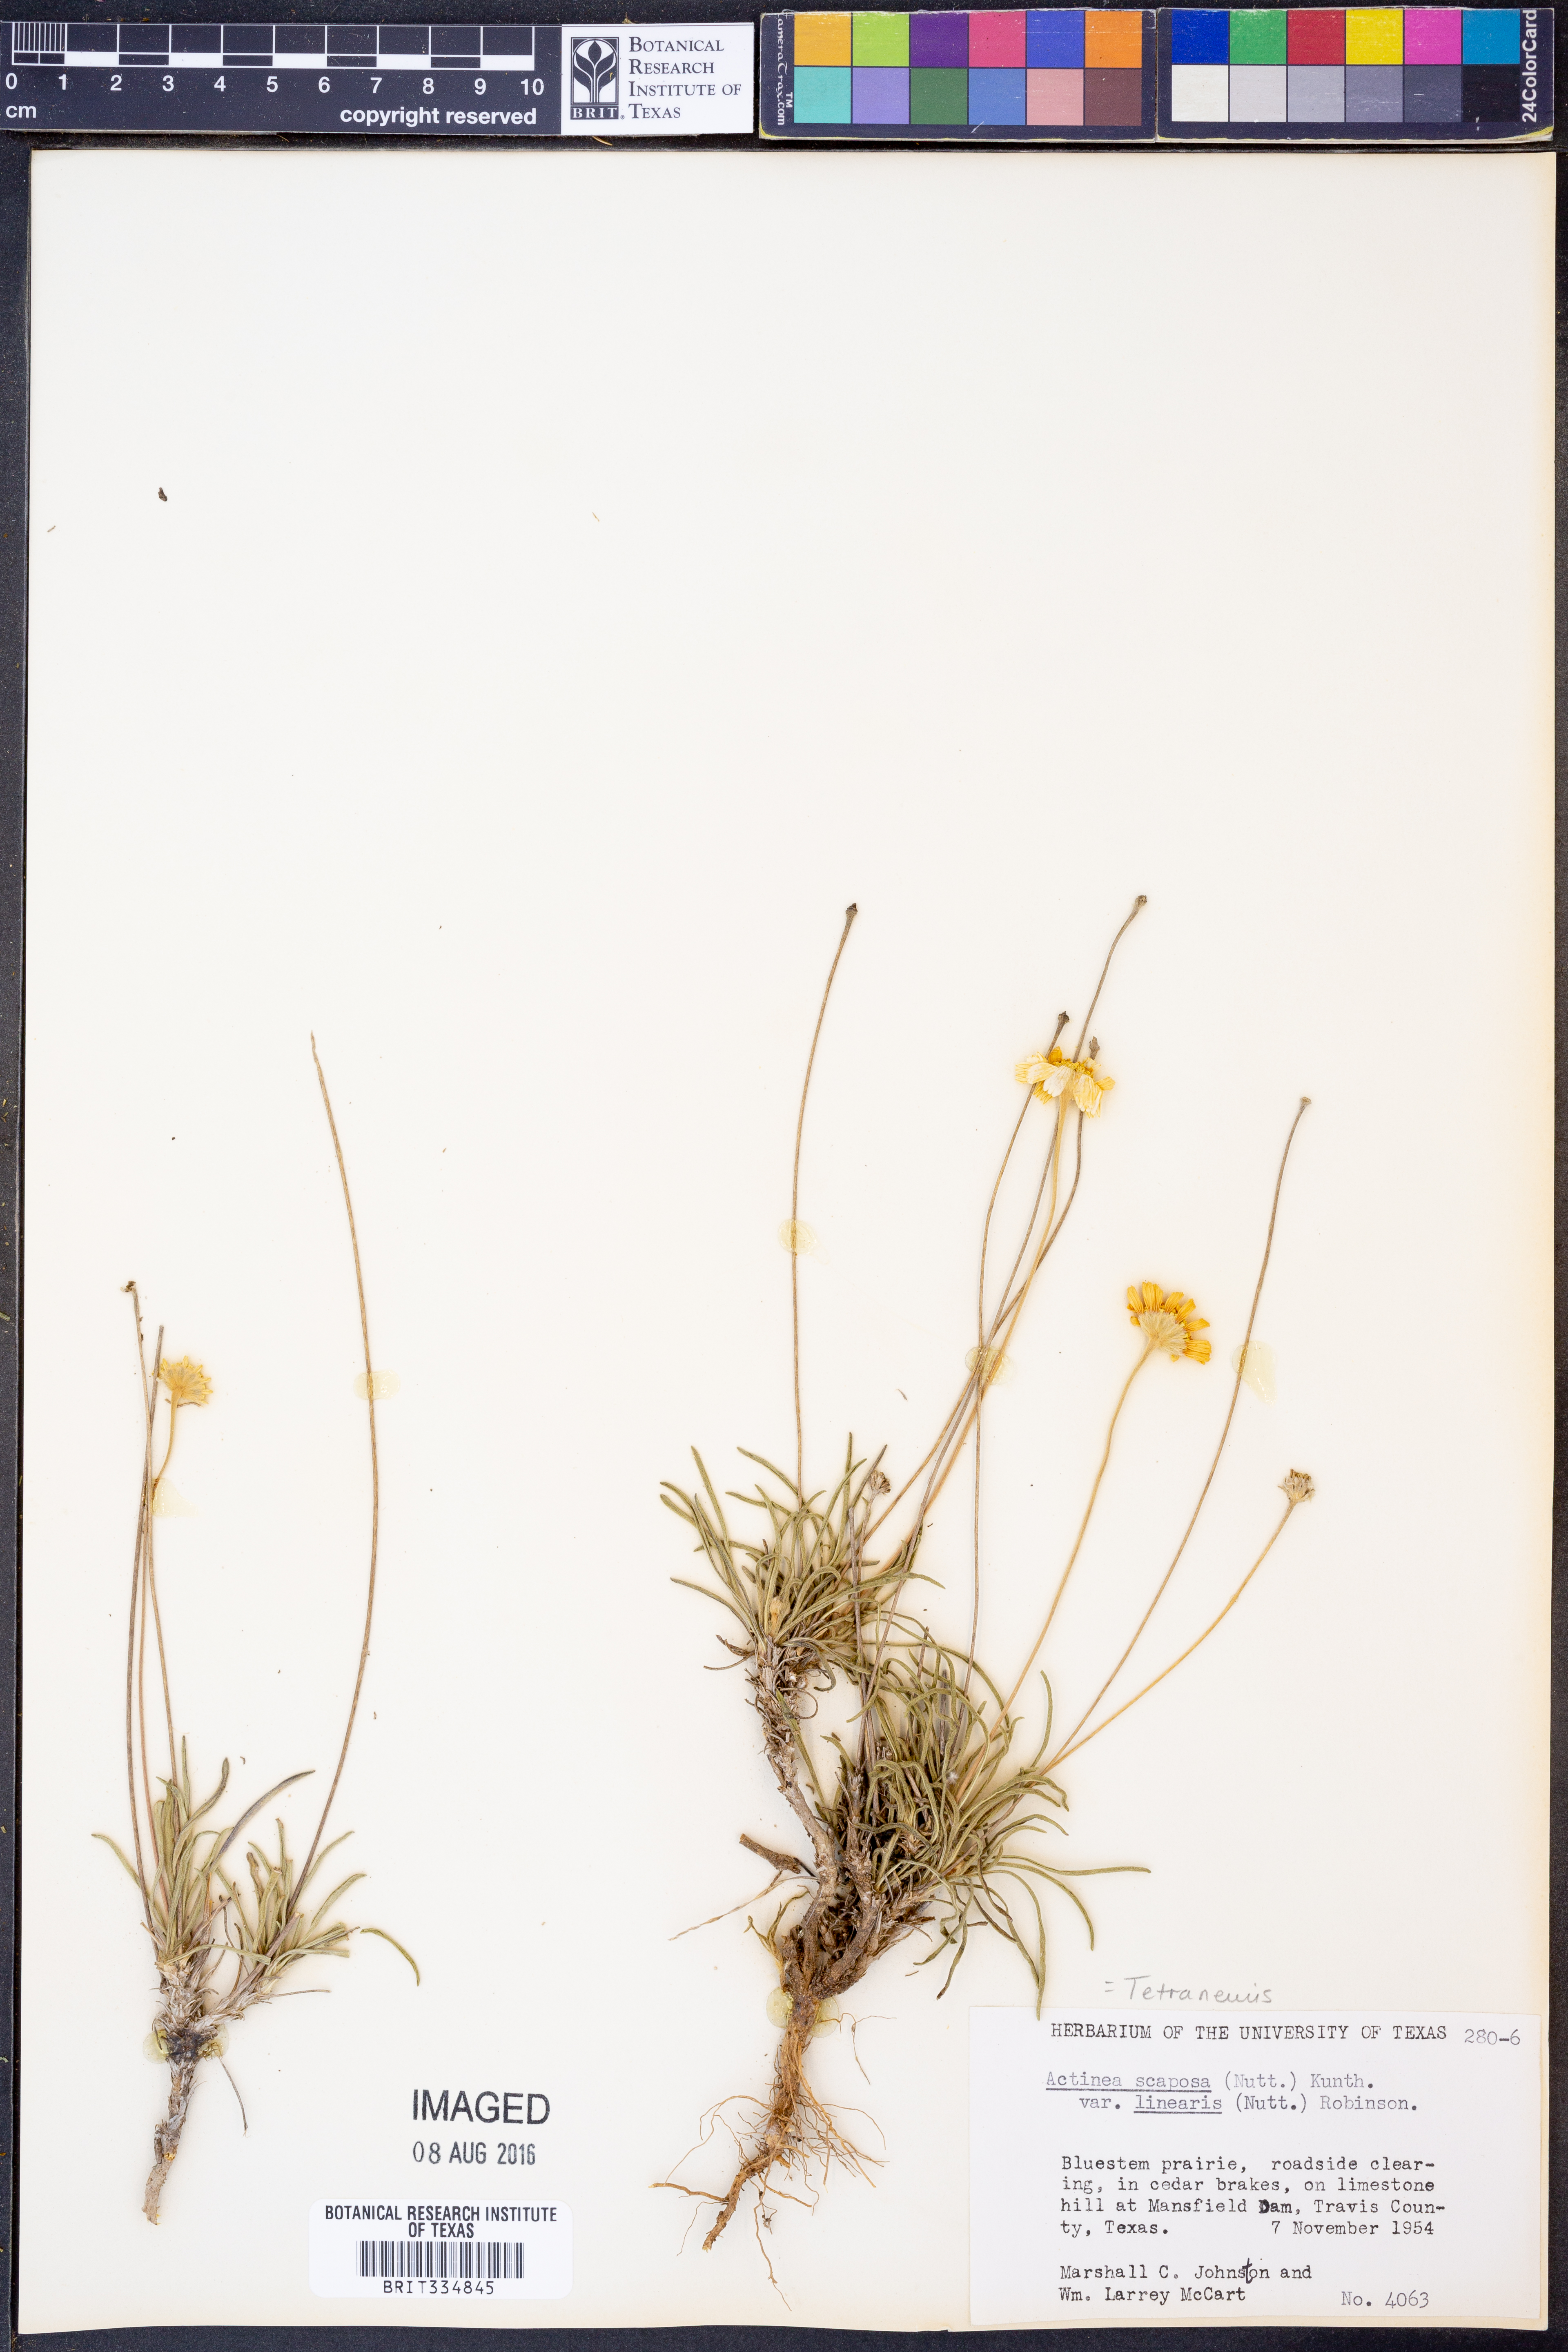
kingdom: Plantae
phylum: Tracheophyta
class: Magnoliopsida
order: Asterales
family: Asteraceae
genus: Tetraneuris
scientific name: Tetraneuris scaposa
